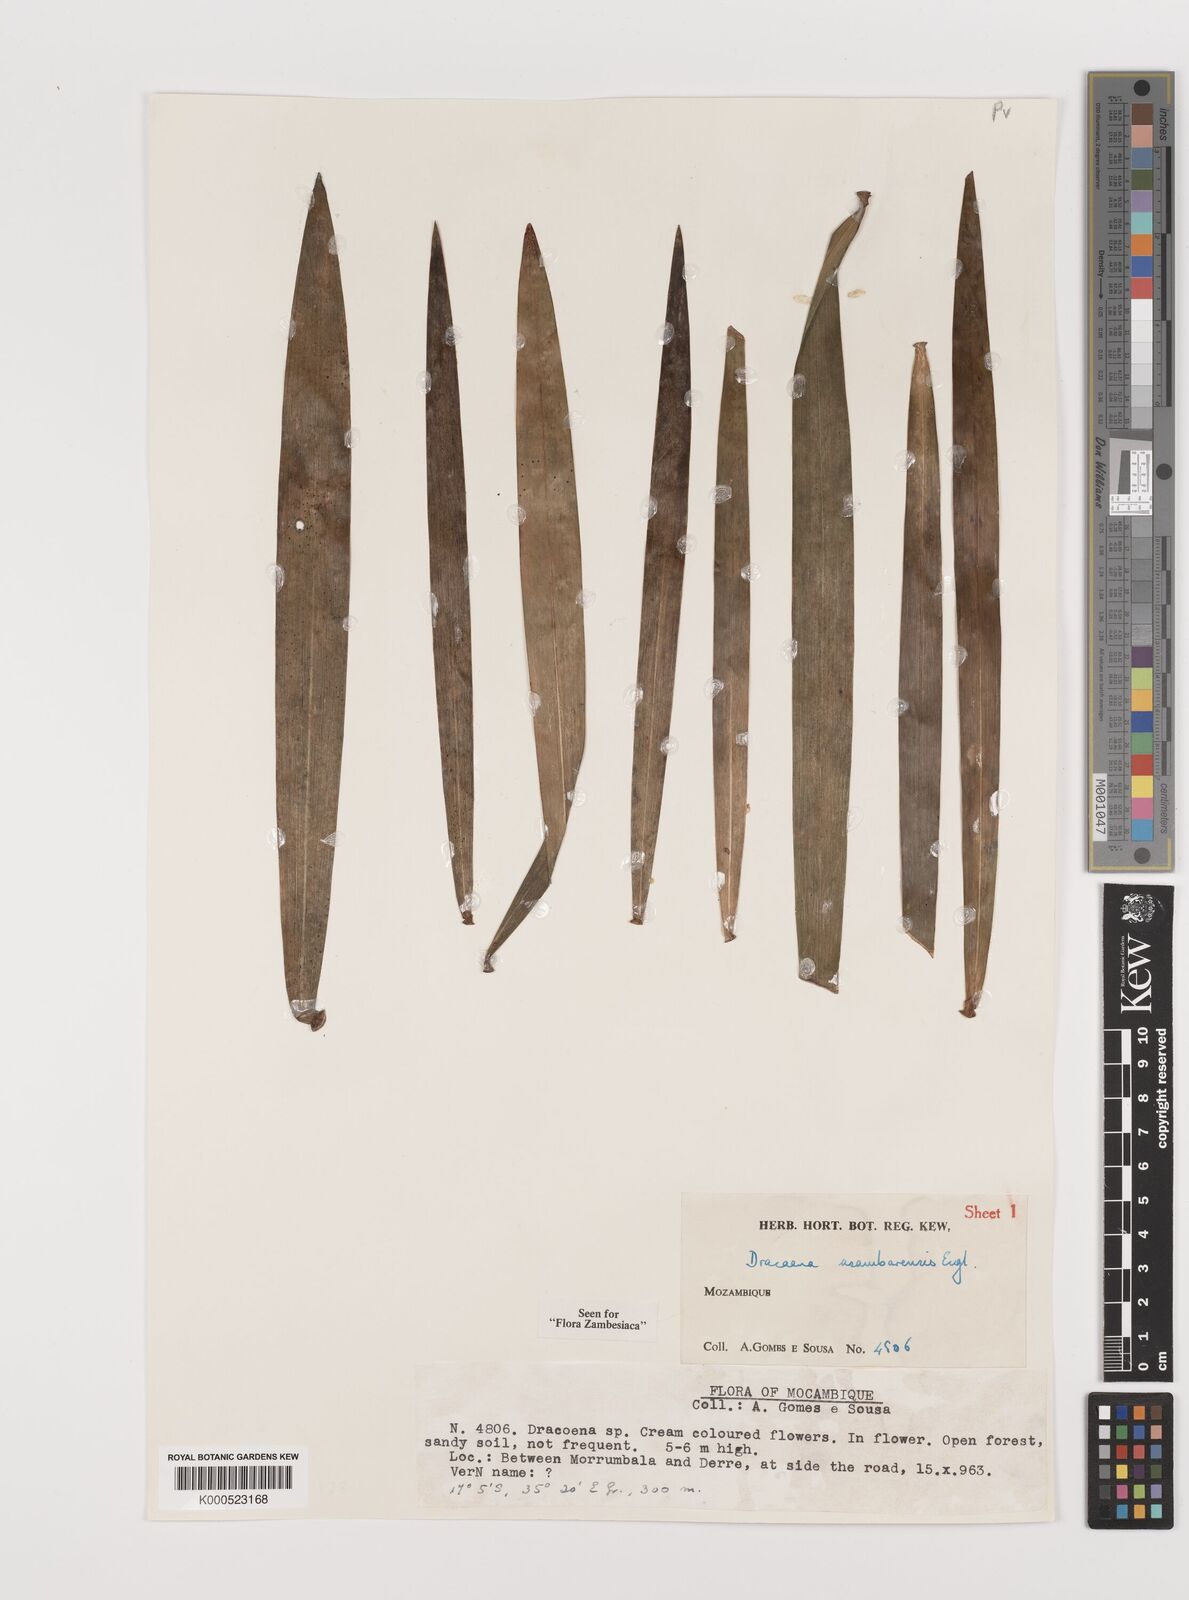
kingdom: Plantae
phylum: Tracheophyta
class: Liliopsida
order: Asparagales
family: Asparagaceae
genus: Dracaena
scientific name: Dracaena usambarensis
